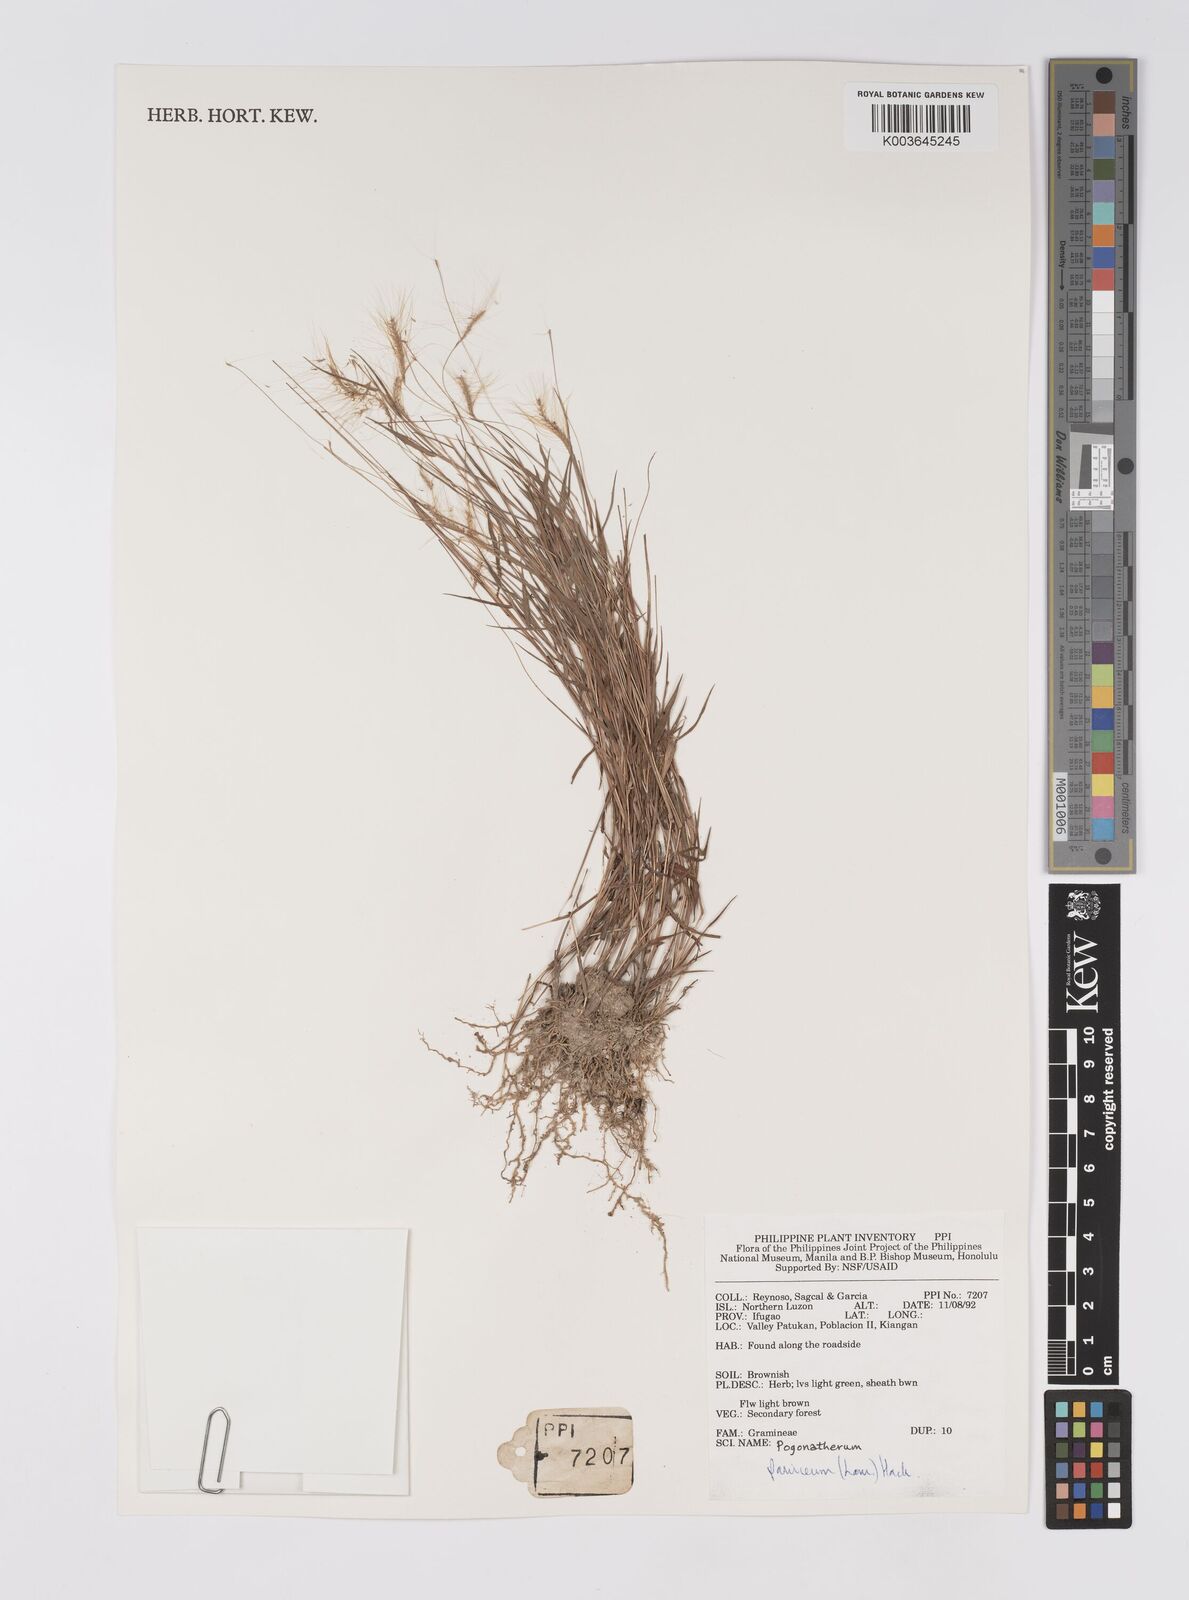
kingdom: Plantae
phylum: Tracheophyta
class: Liliopsida
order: Poales
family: Poaceae
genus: Pogonatherum
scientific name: Pogonatherum paniceum
